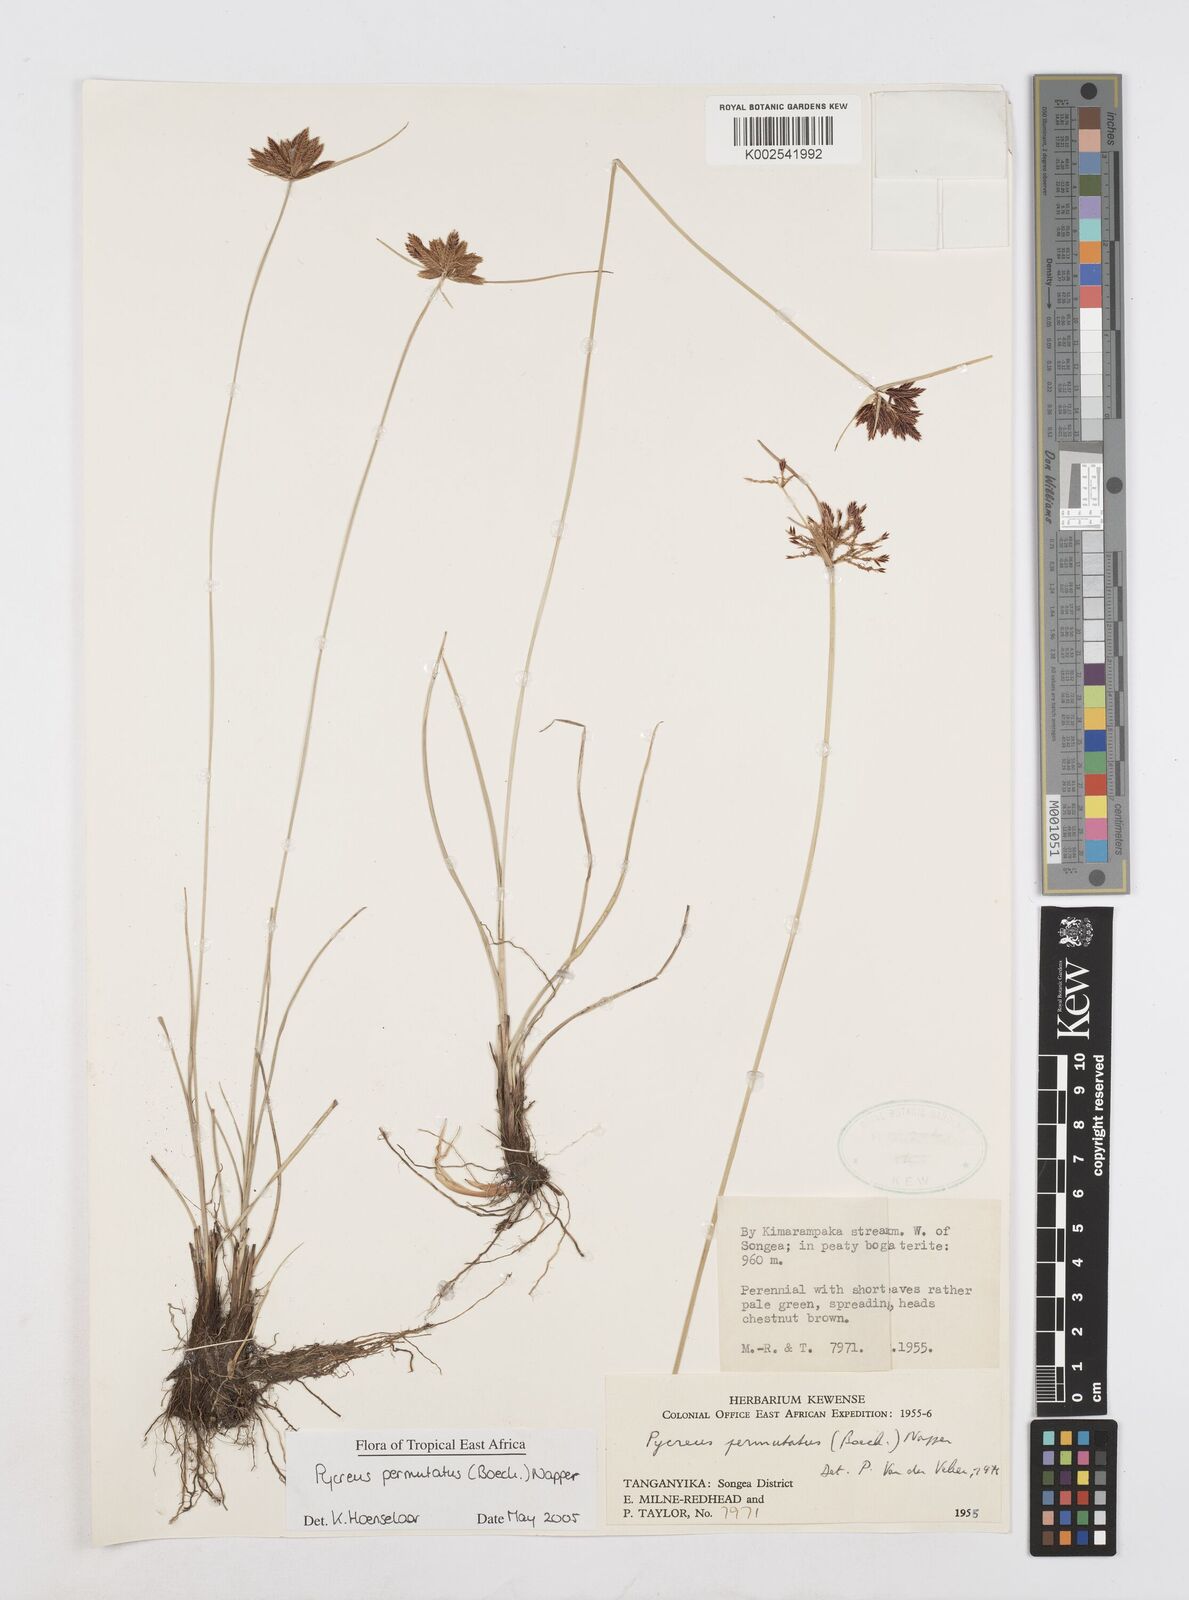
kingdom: Plantae
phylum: Tracheophyta
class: Liliopsida
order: Poales
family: Cyperaceae
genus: Cyperus
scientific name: Cyperus nigricans
